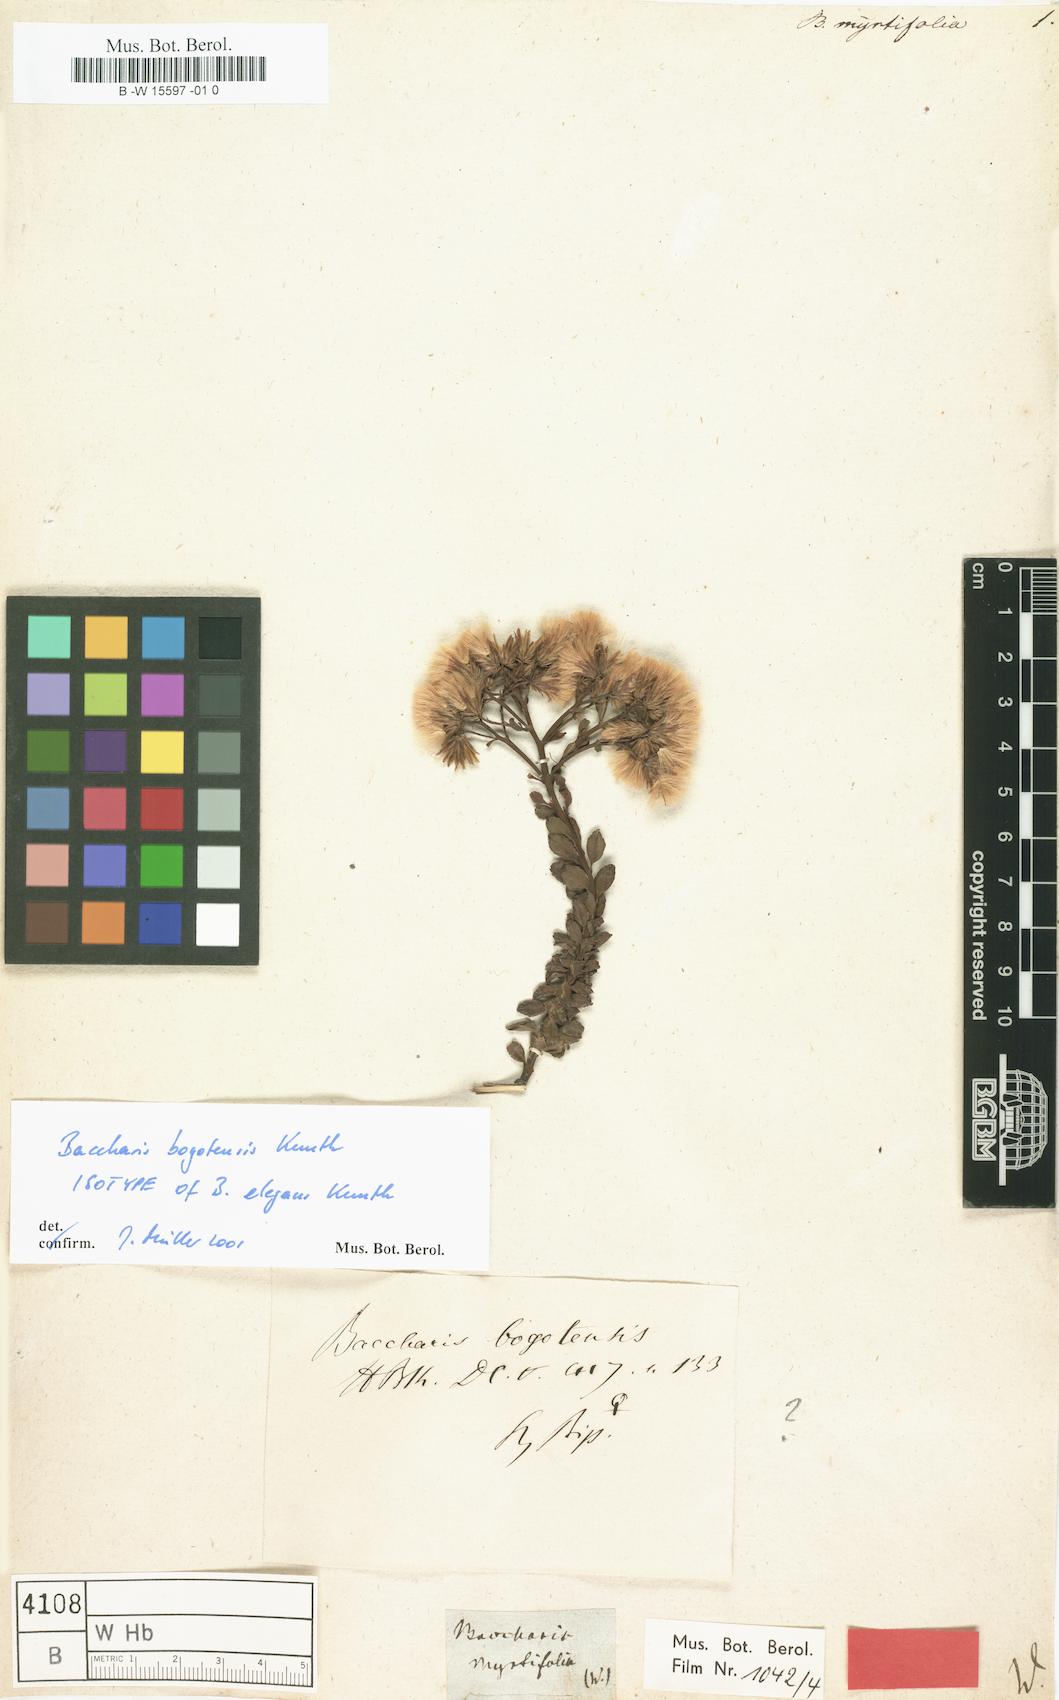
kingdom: Plantae
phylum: Tracheophyta
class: Magnoliopsida
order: Asterales
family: Asteraceae
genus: Baccharis
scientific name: Baccharis myricifolia
